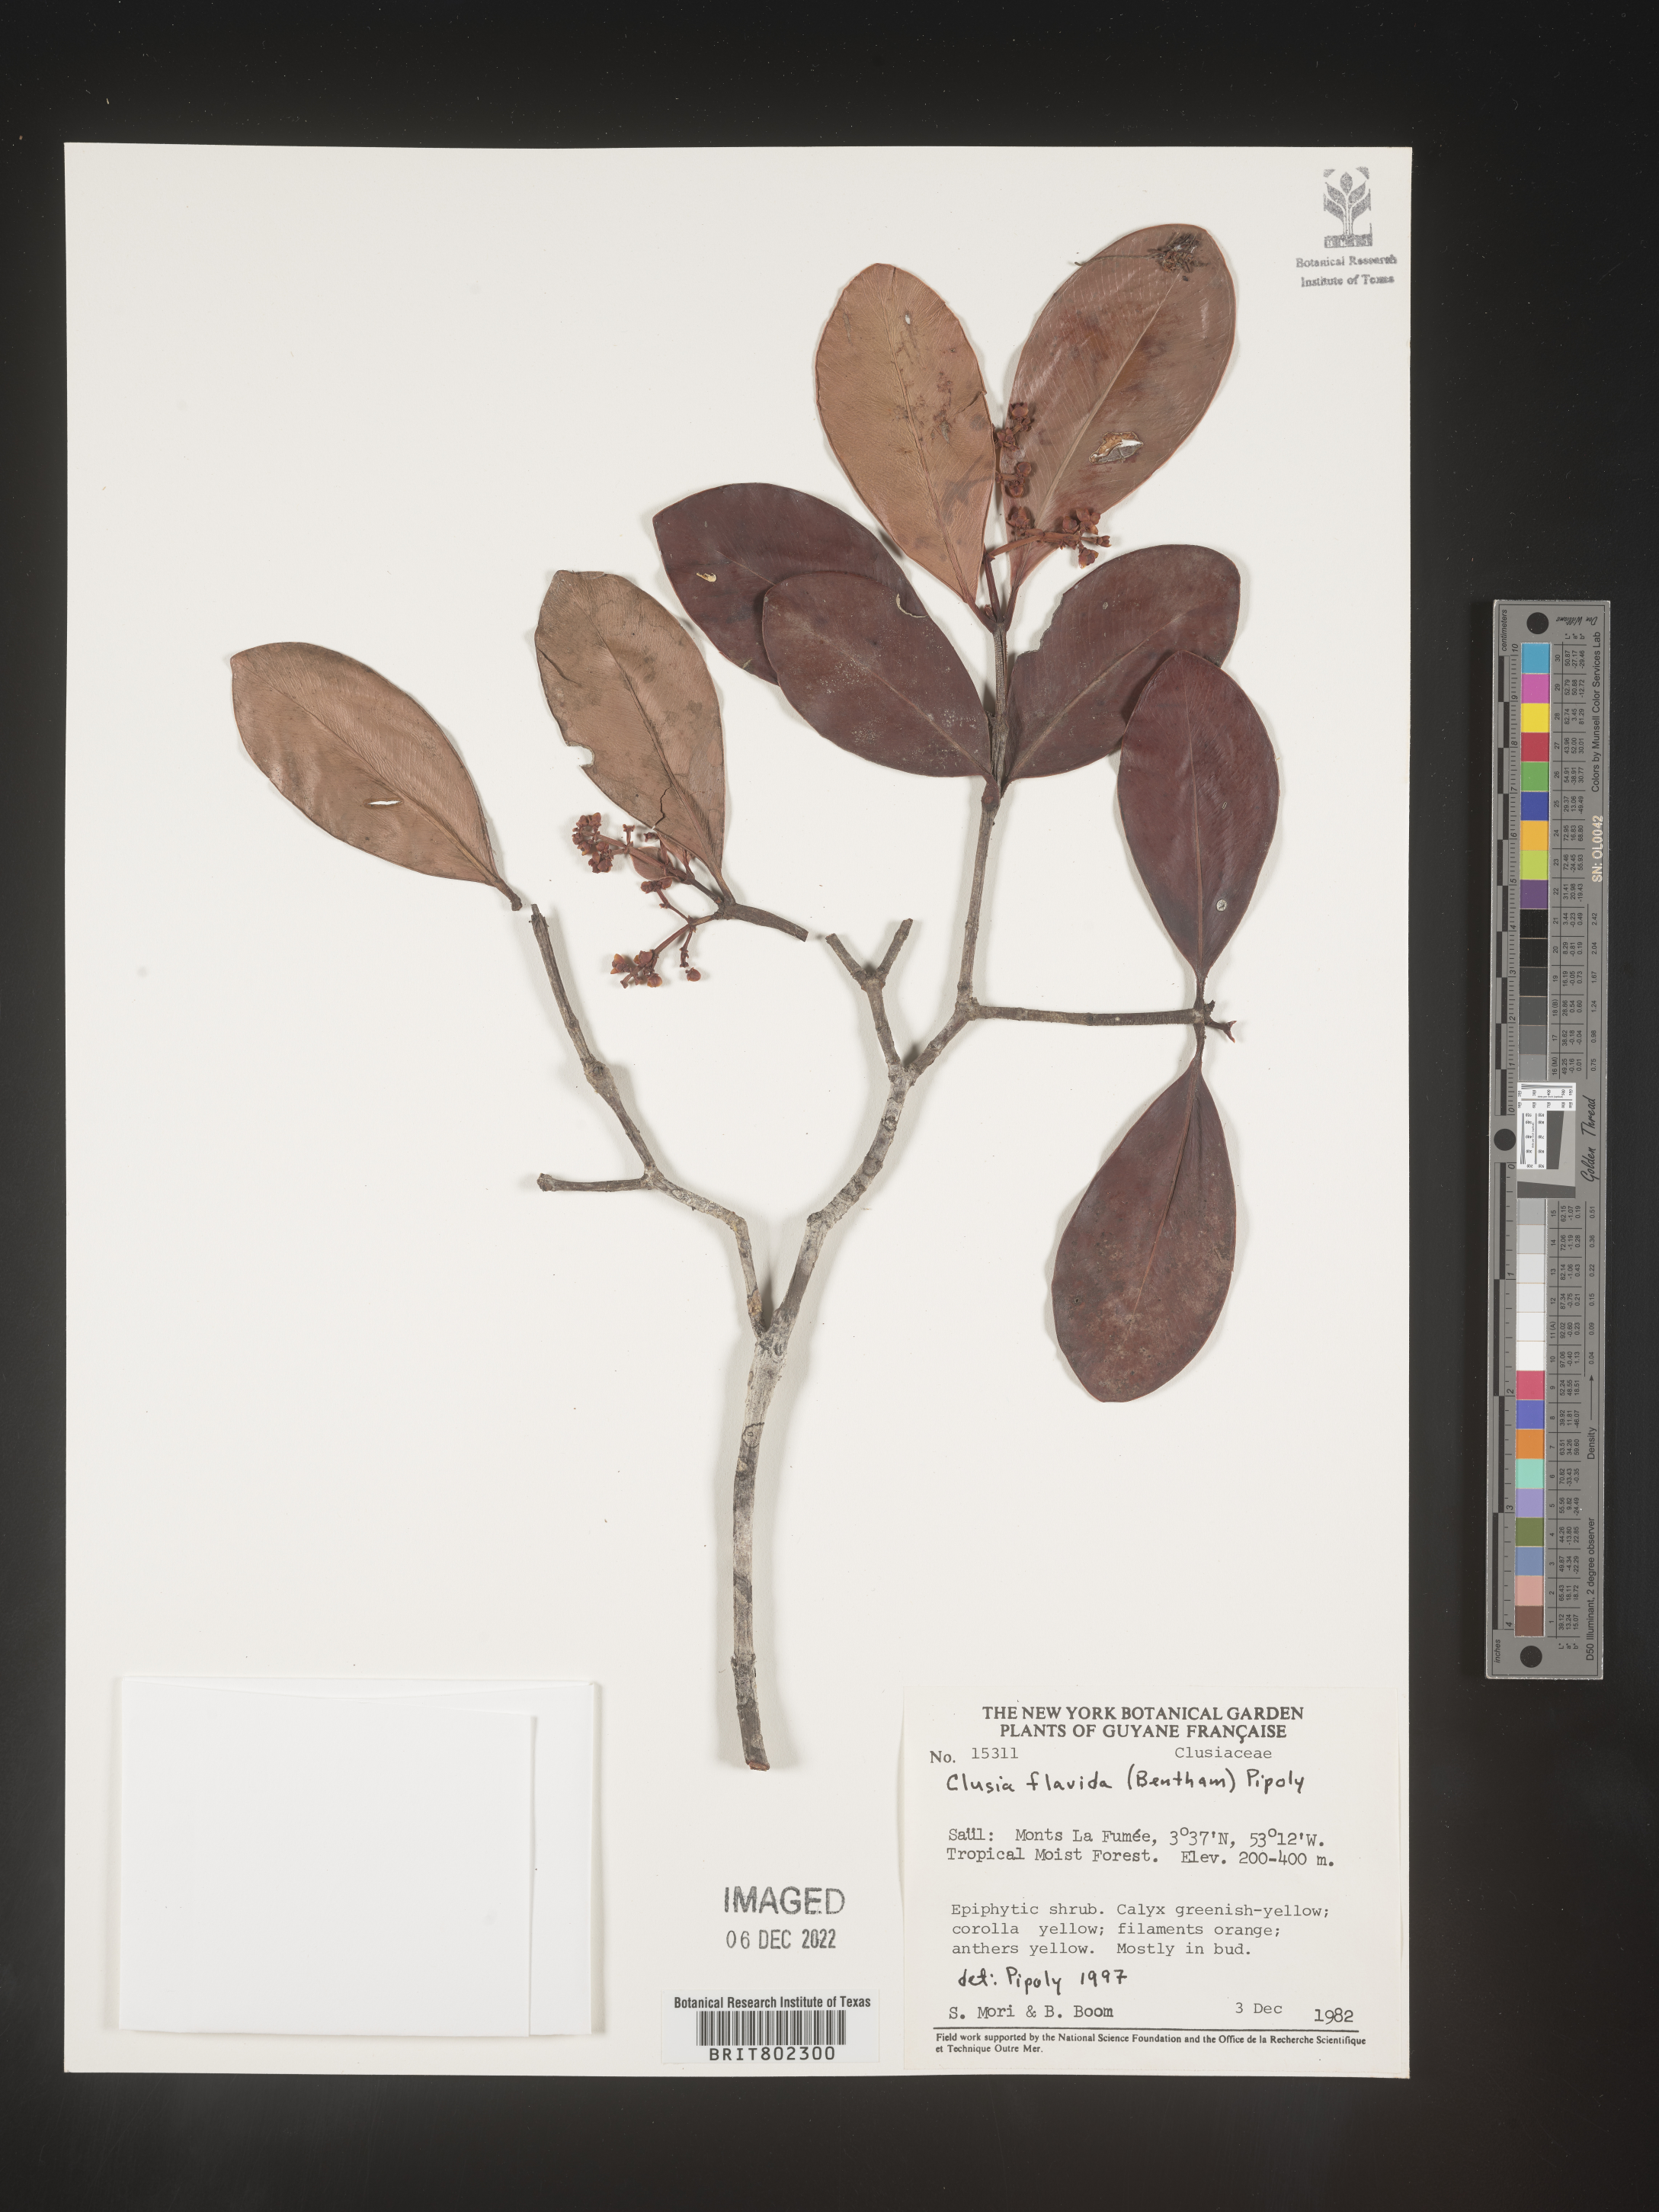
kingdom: Plantae
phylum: Tracheophyta
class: Magnoliopsida
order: Malpighiales
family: Clusiaceae
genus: Clusia
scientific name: Clusia flavida
